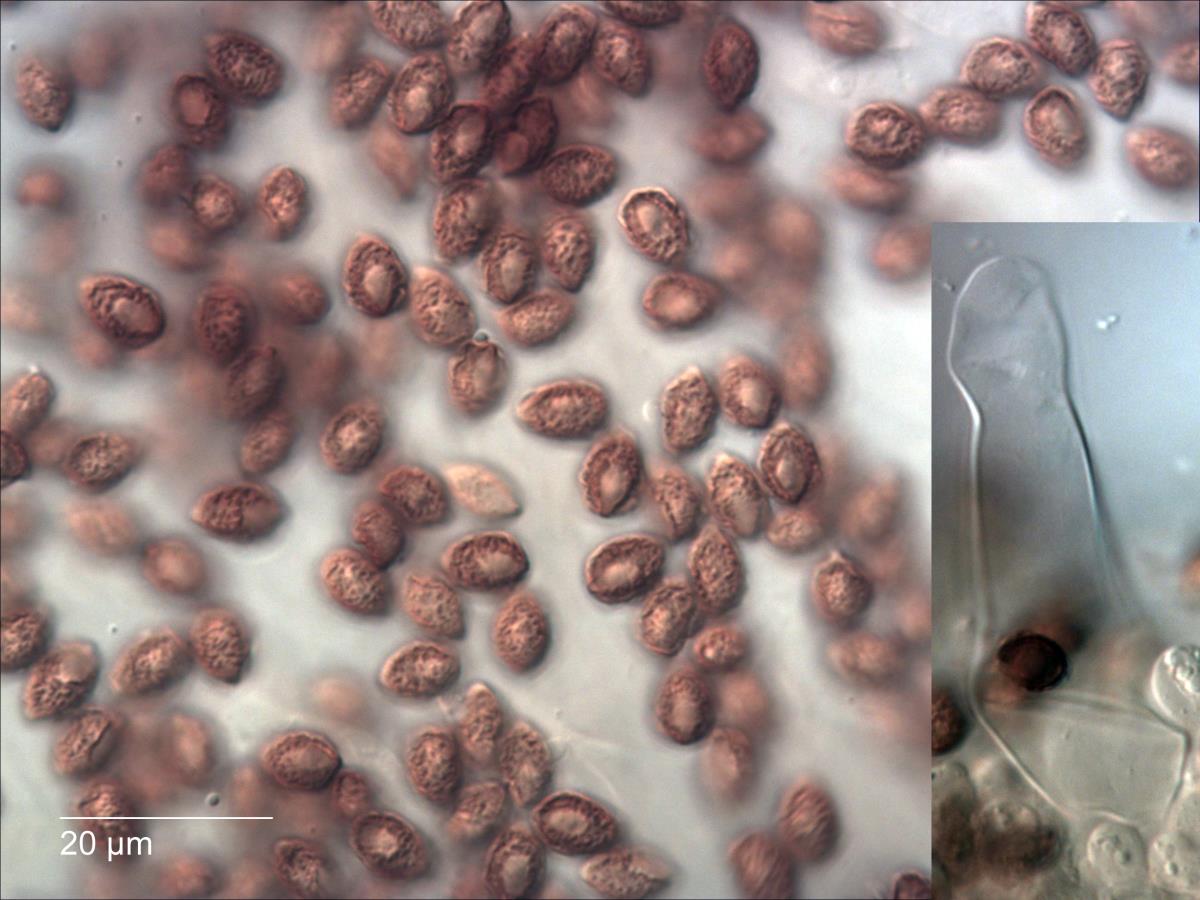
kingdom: Fungi
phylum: Basidiomycota
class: Agaricomycetes
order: Agaricales
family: Hymenogastraceae
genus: Galerina
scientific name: Galerina nana
